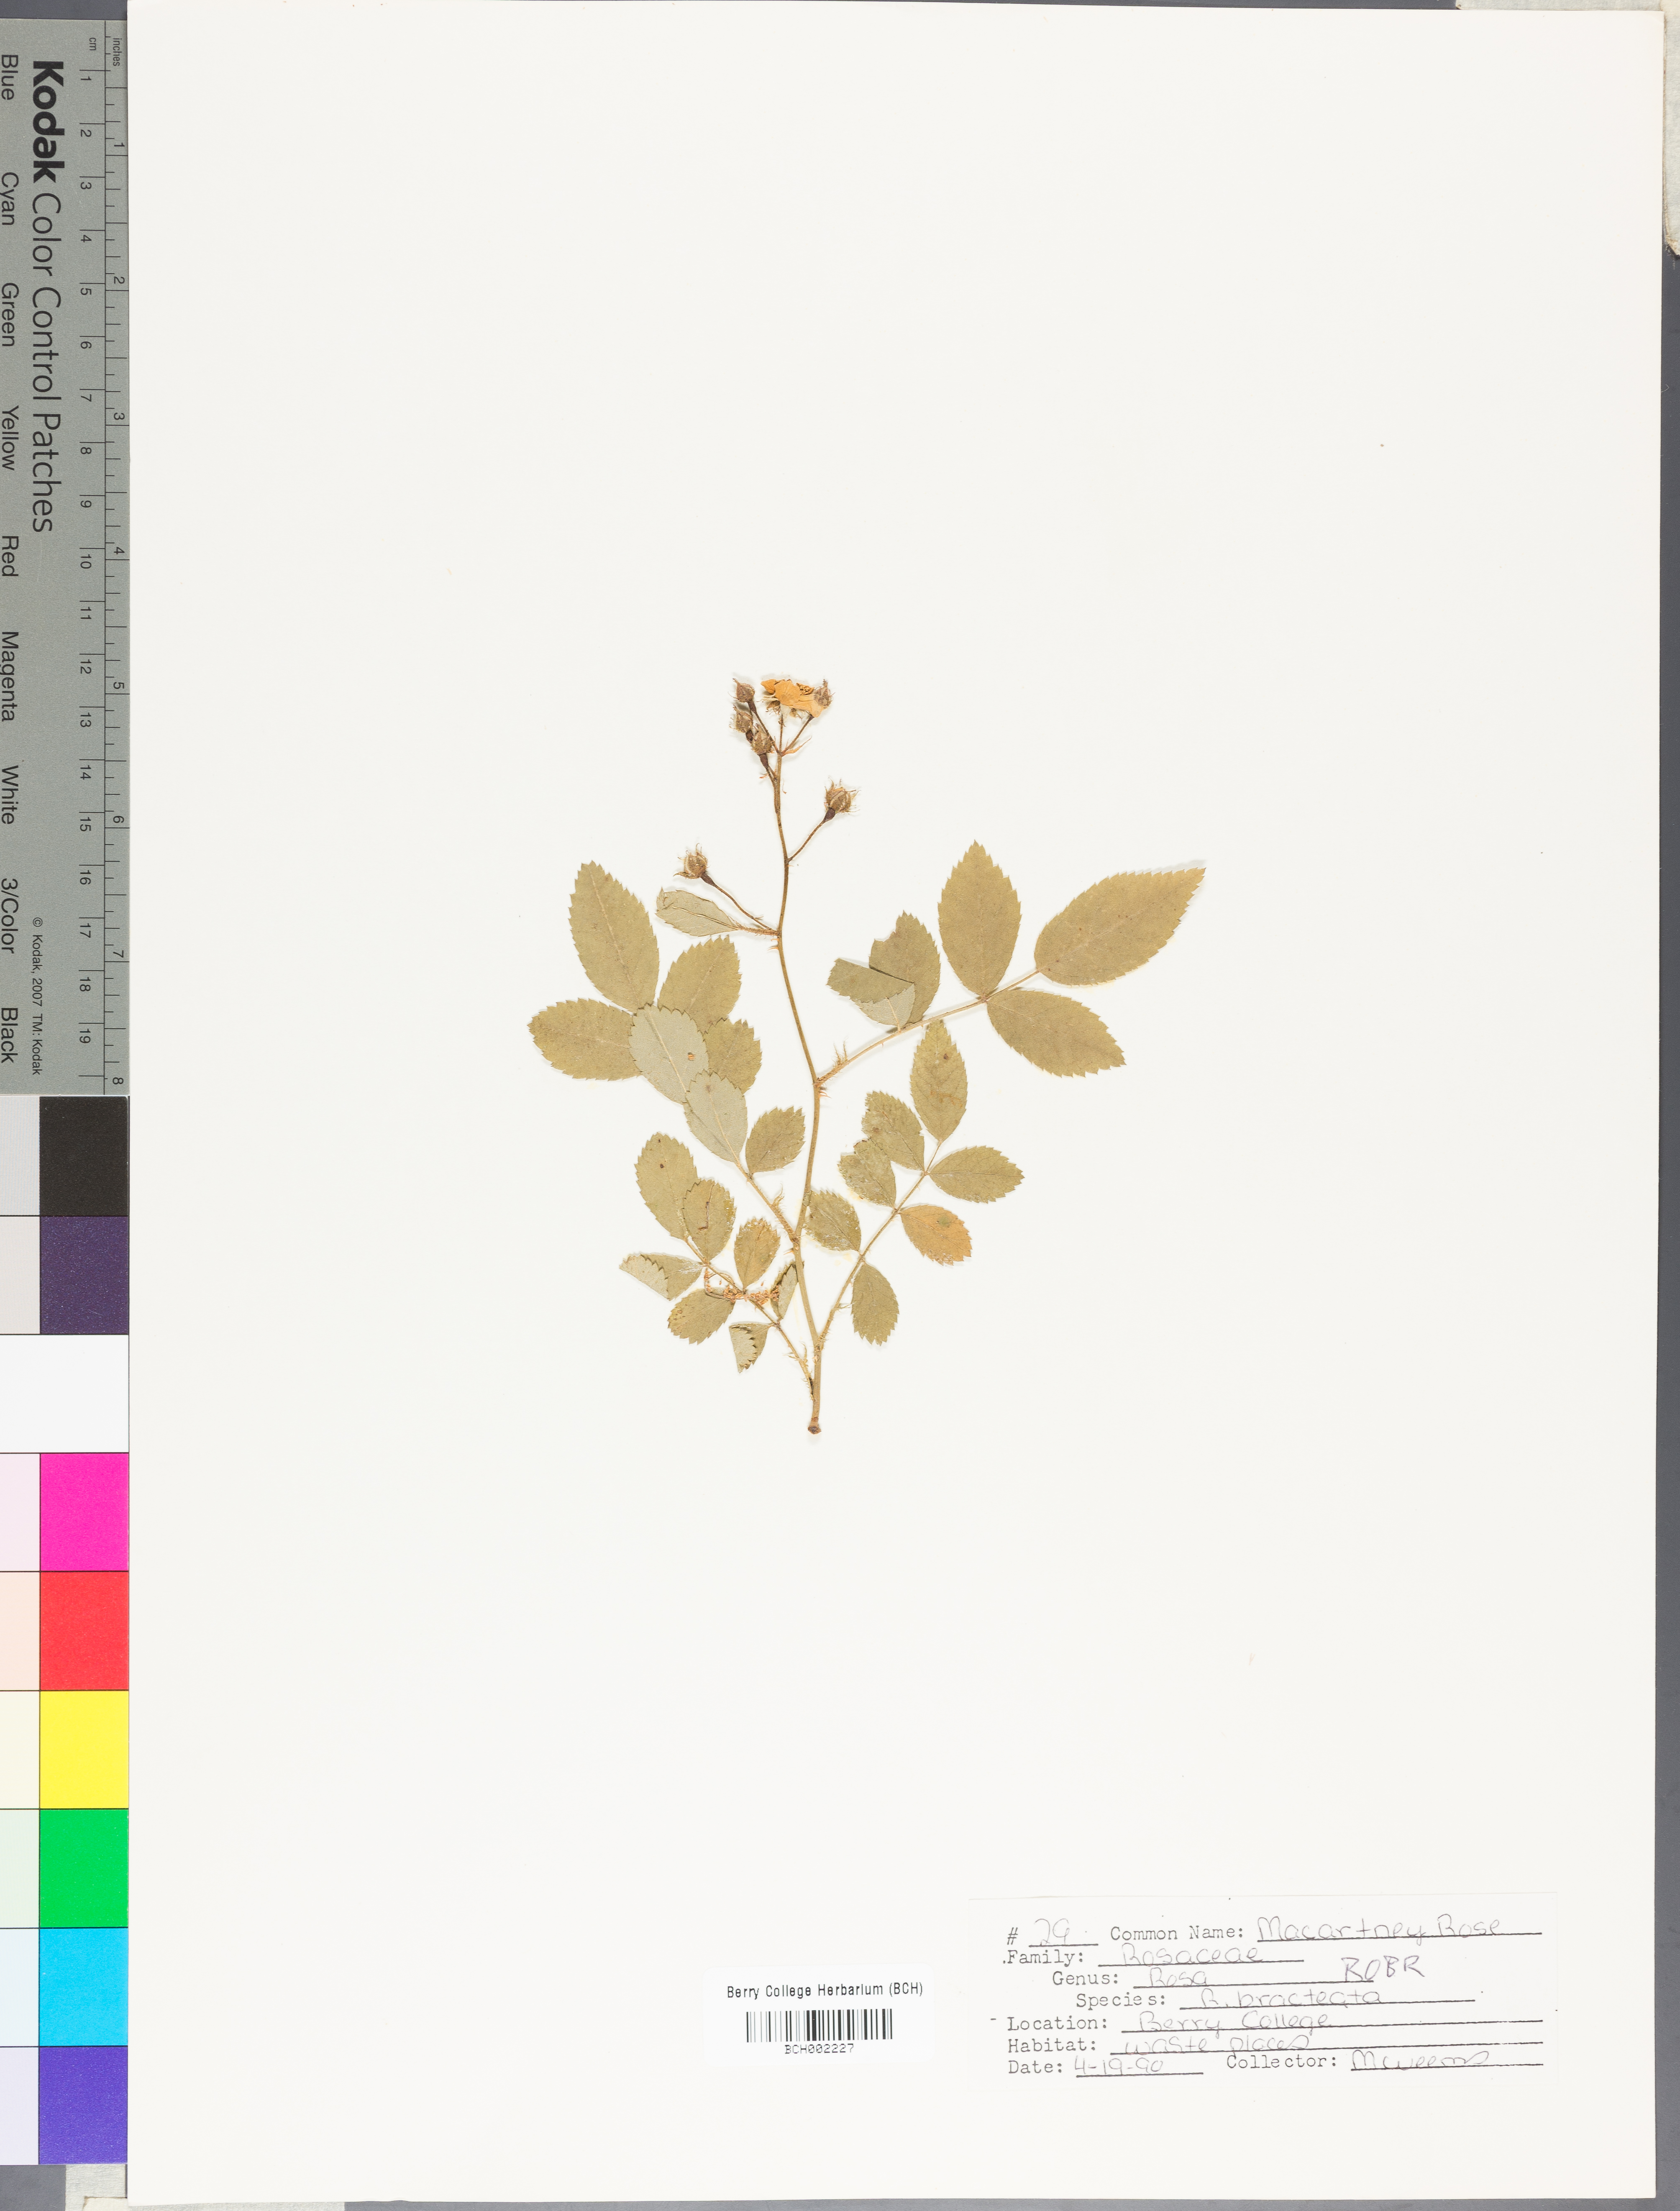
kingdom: Plantae
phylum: Tracheophyta
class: Magnoliopsida
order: Rosales
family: Rosaceae
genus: Rosa
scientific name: Rosa bracteata
